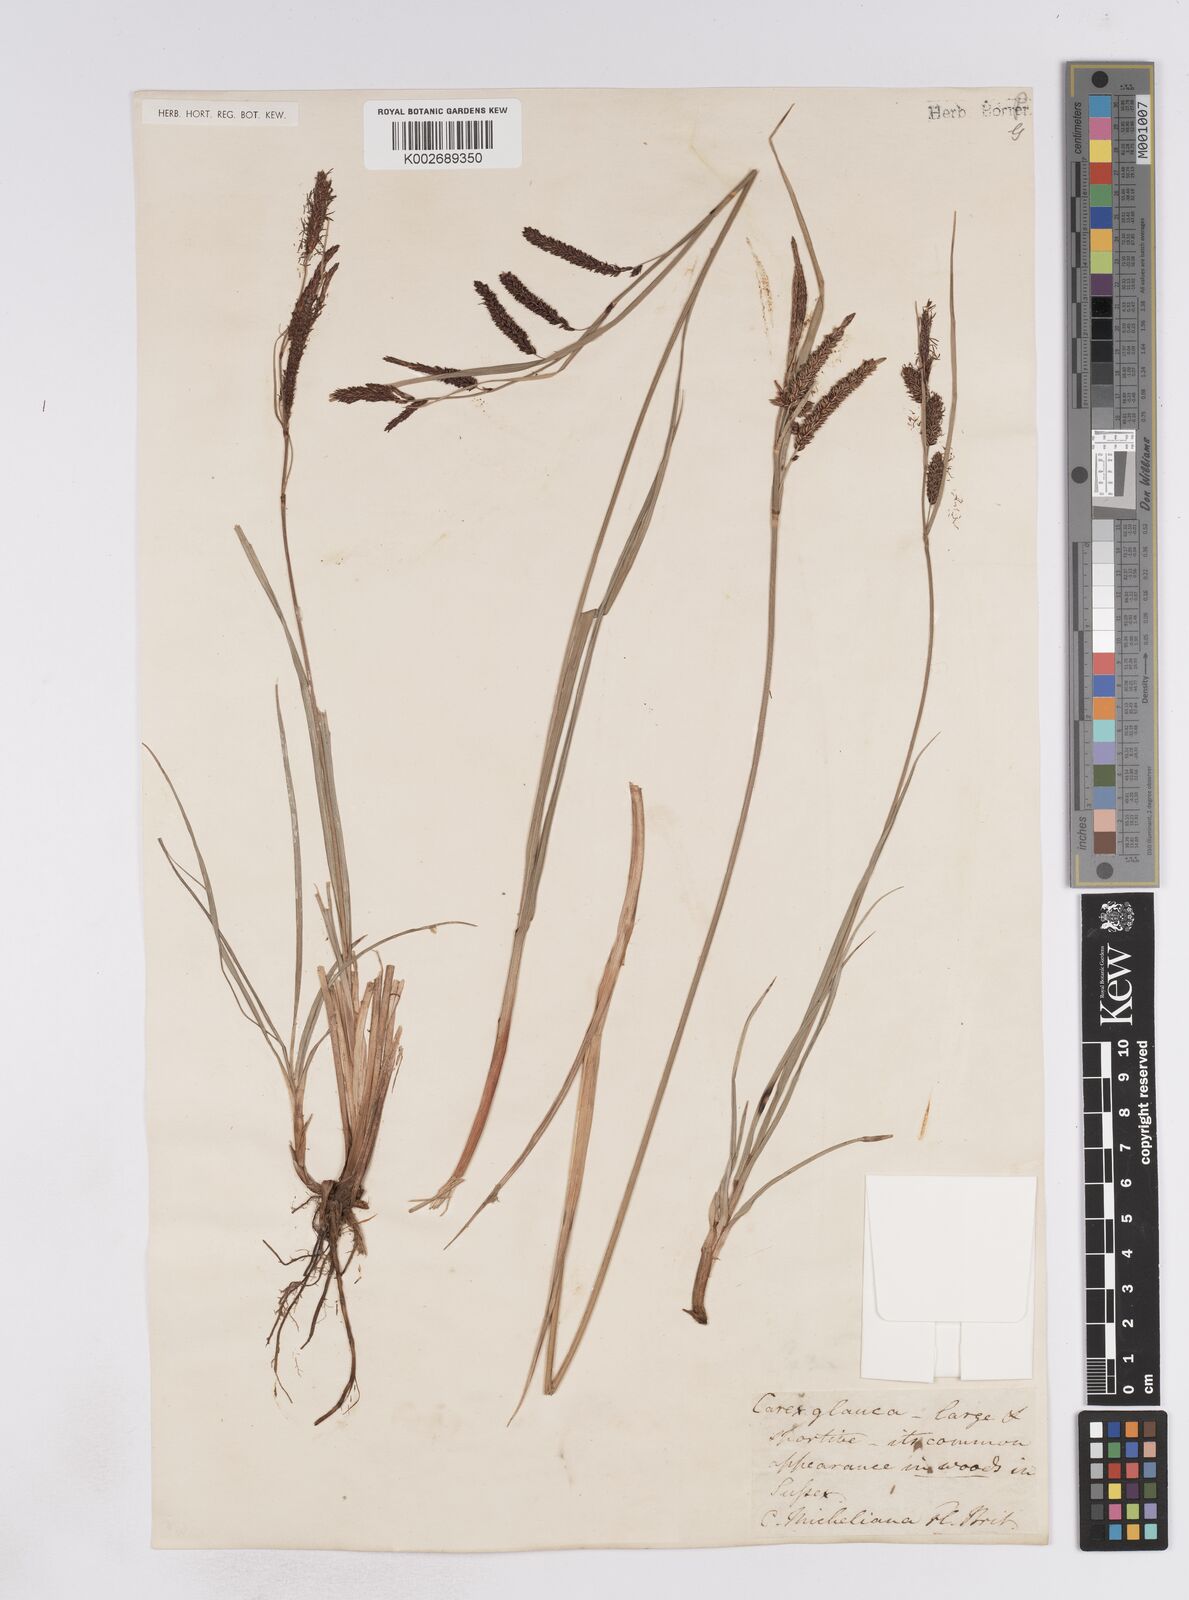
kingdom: Plantae
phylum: Tracheophyta
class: Liliopsida
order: Poales
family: Cyperaceae
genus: Carex
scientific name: Carex flacca
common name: Glaucous sedge
